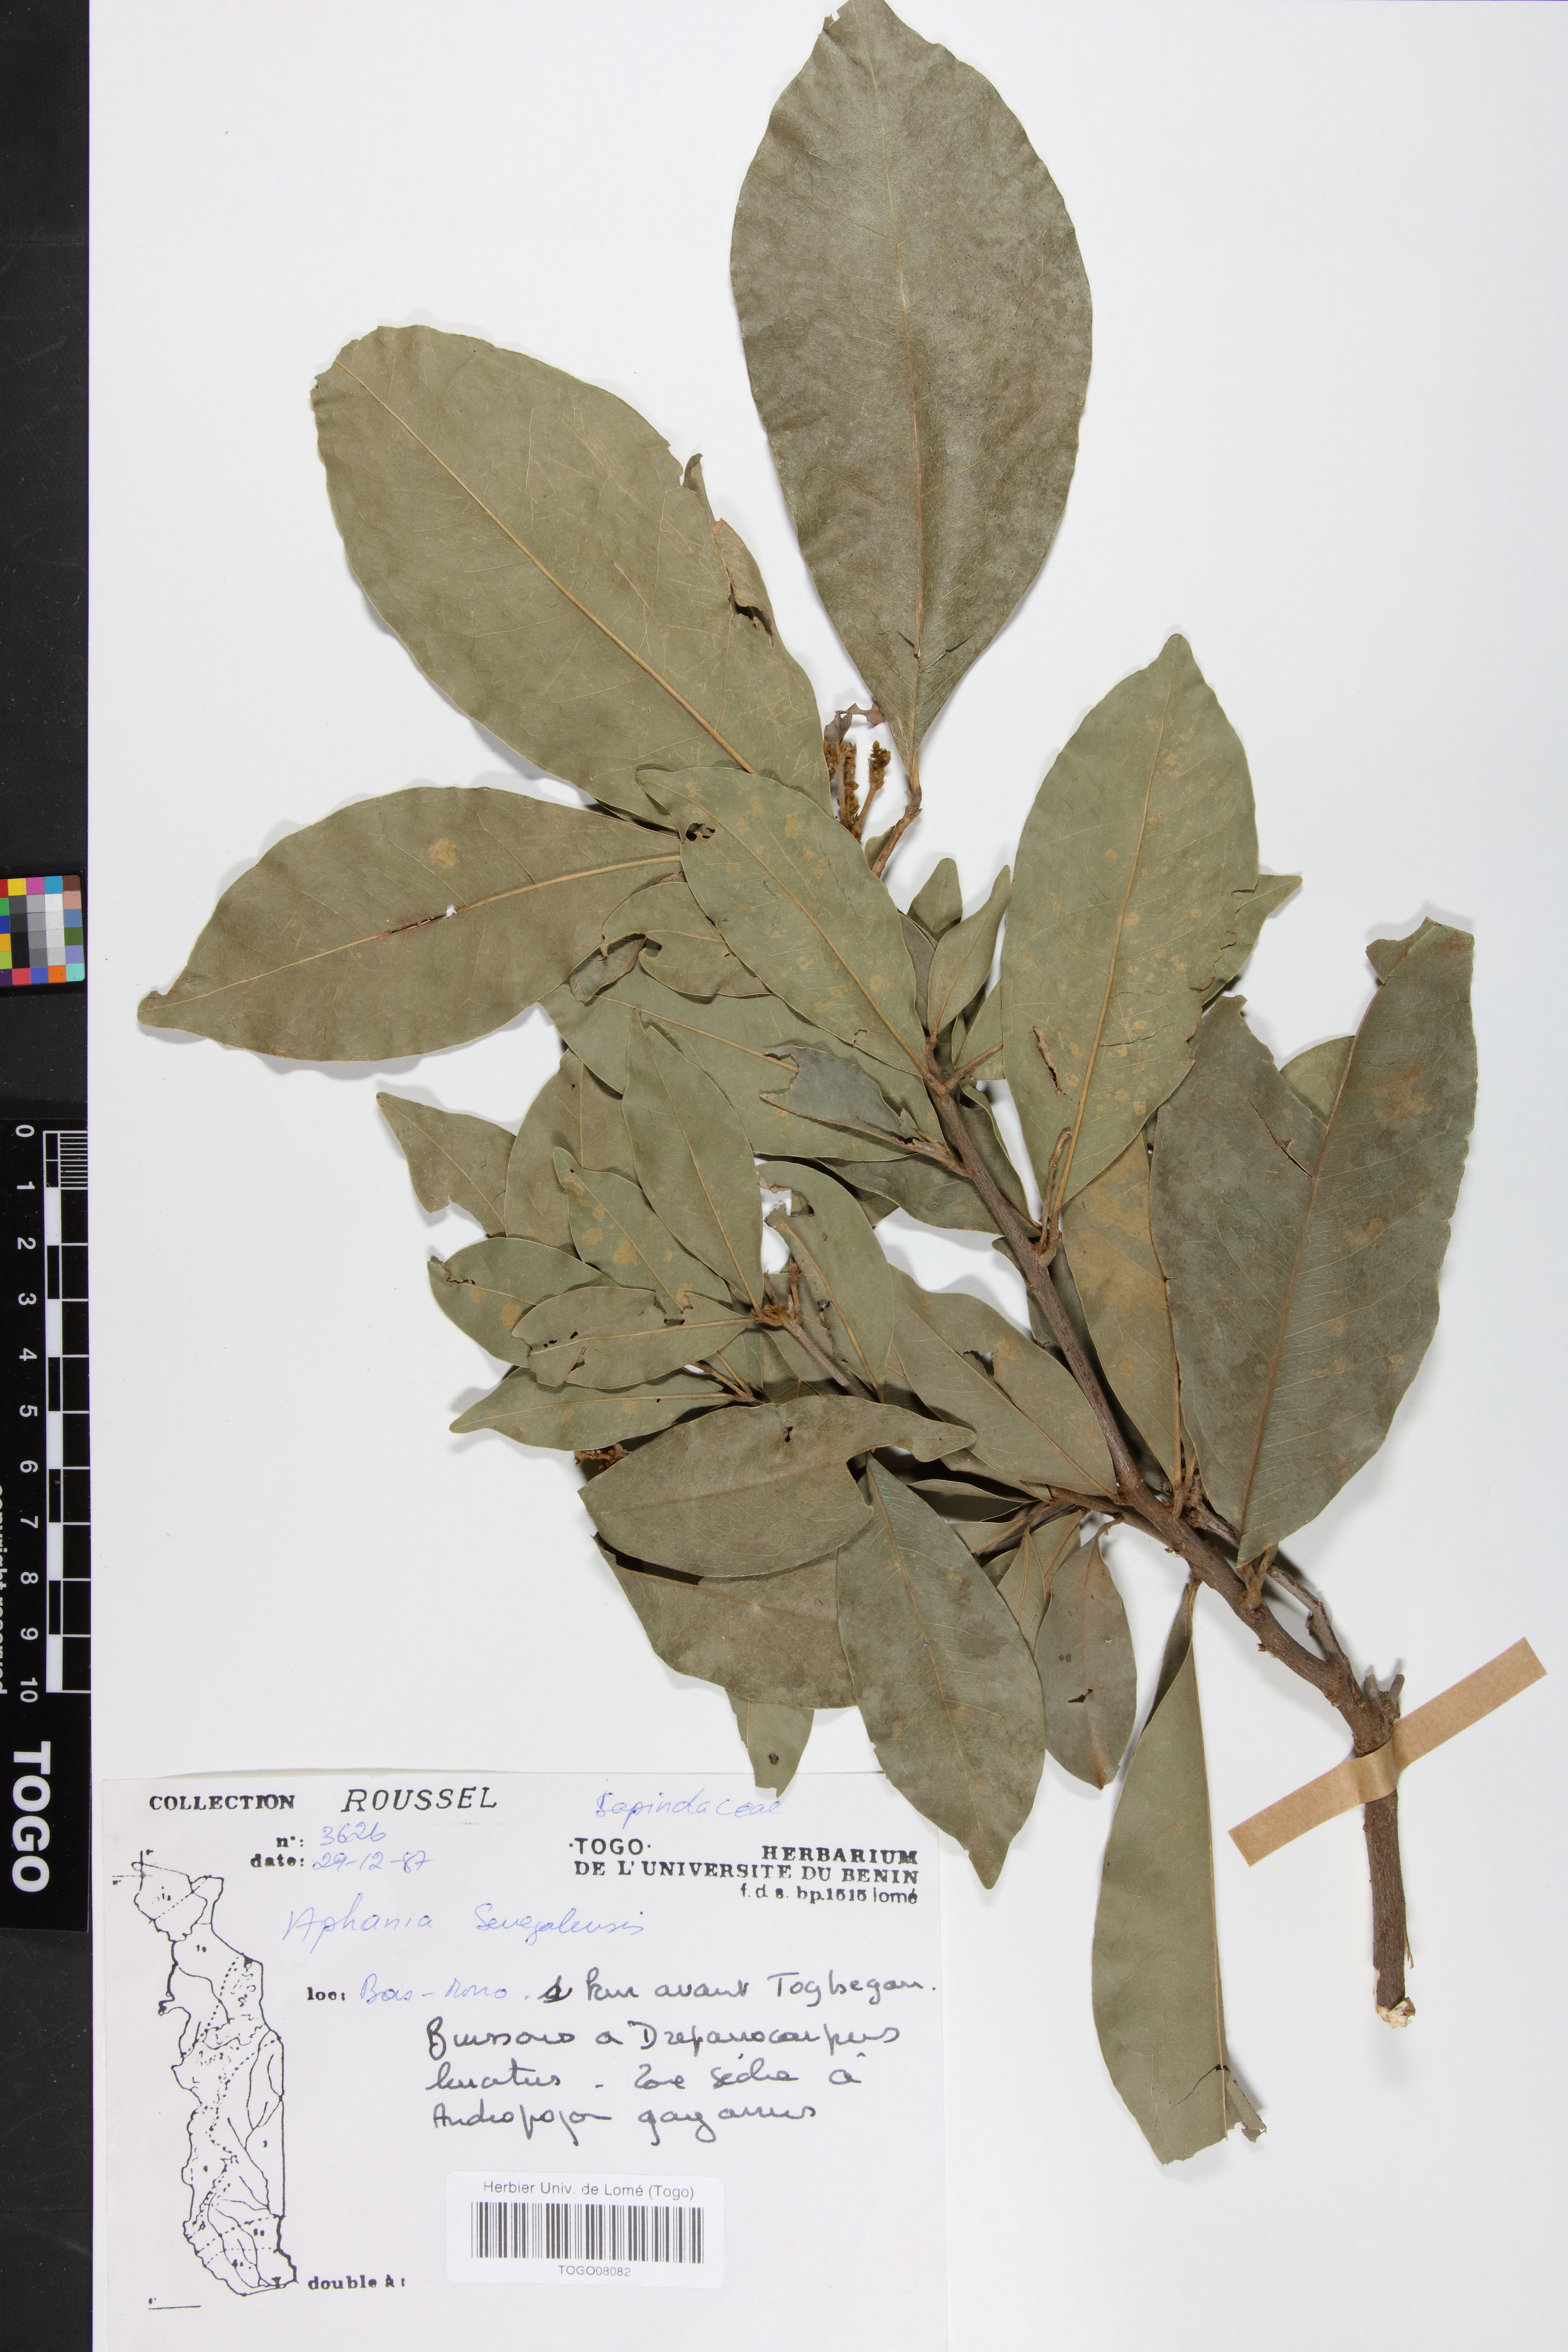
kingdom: Plantae
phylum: Tracheophyta
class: Magnoliopsida
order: Sapindales
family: Sapindaceae
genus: Lepisanthes
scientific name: Lepisanthes senegalensis
